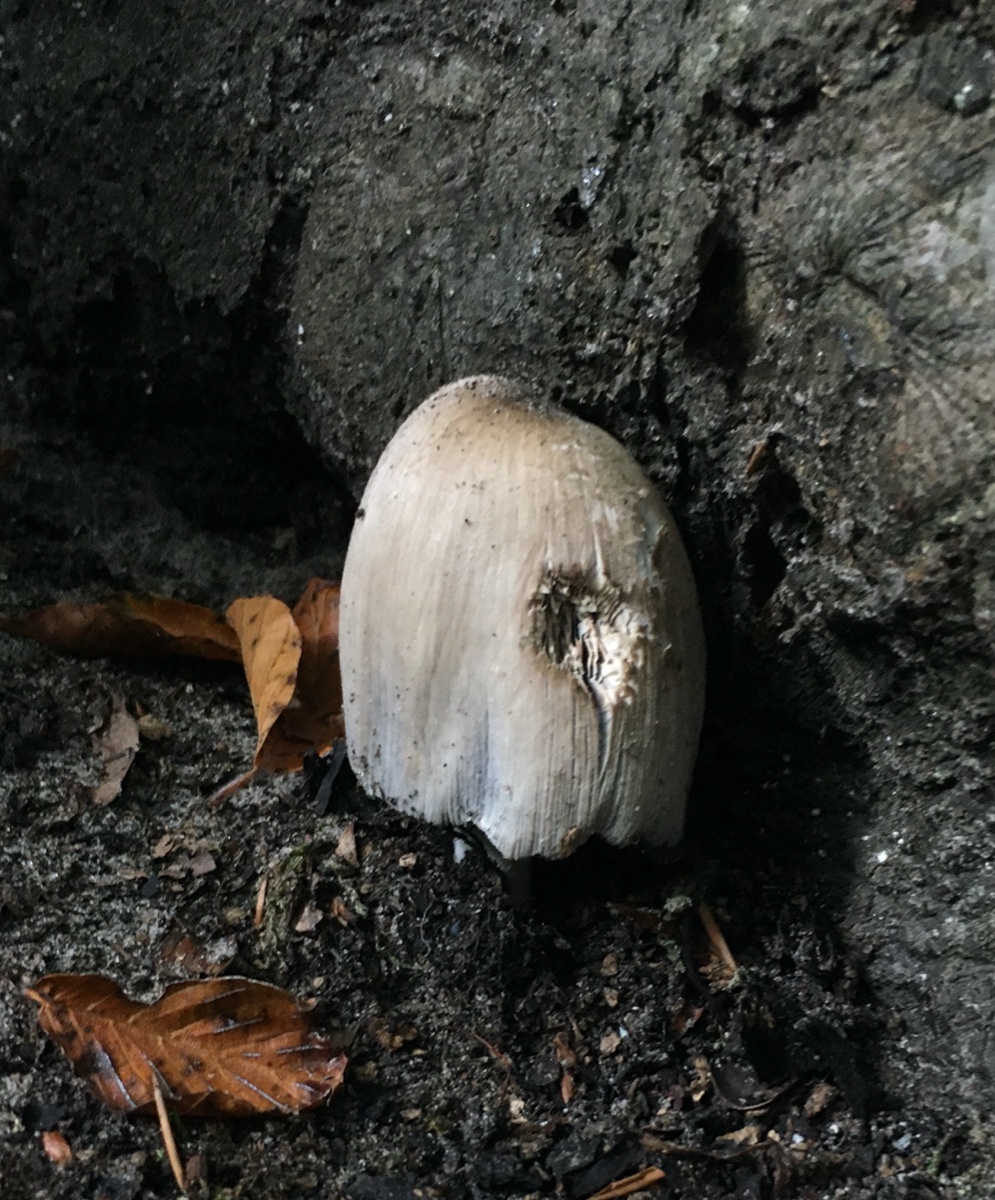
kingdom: Fungi
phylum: Basidiomycota
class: Agaricomycetes
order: Agaricales
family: Psathyrellaceae
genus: Coprinopsis
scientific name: Coprinopsis atramentaria
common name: almindelig blækhat
